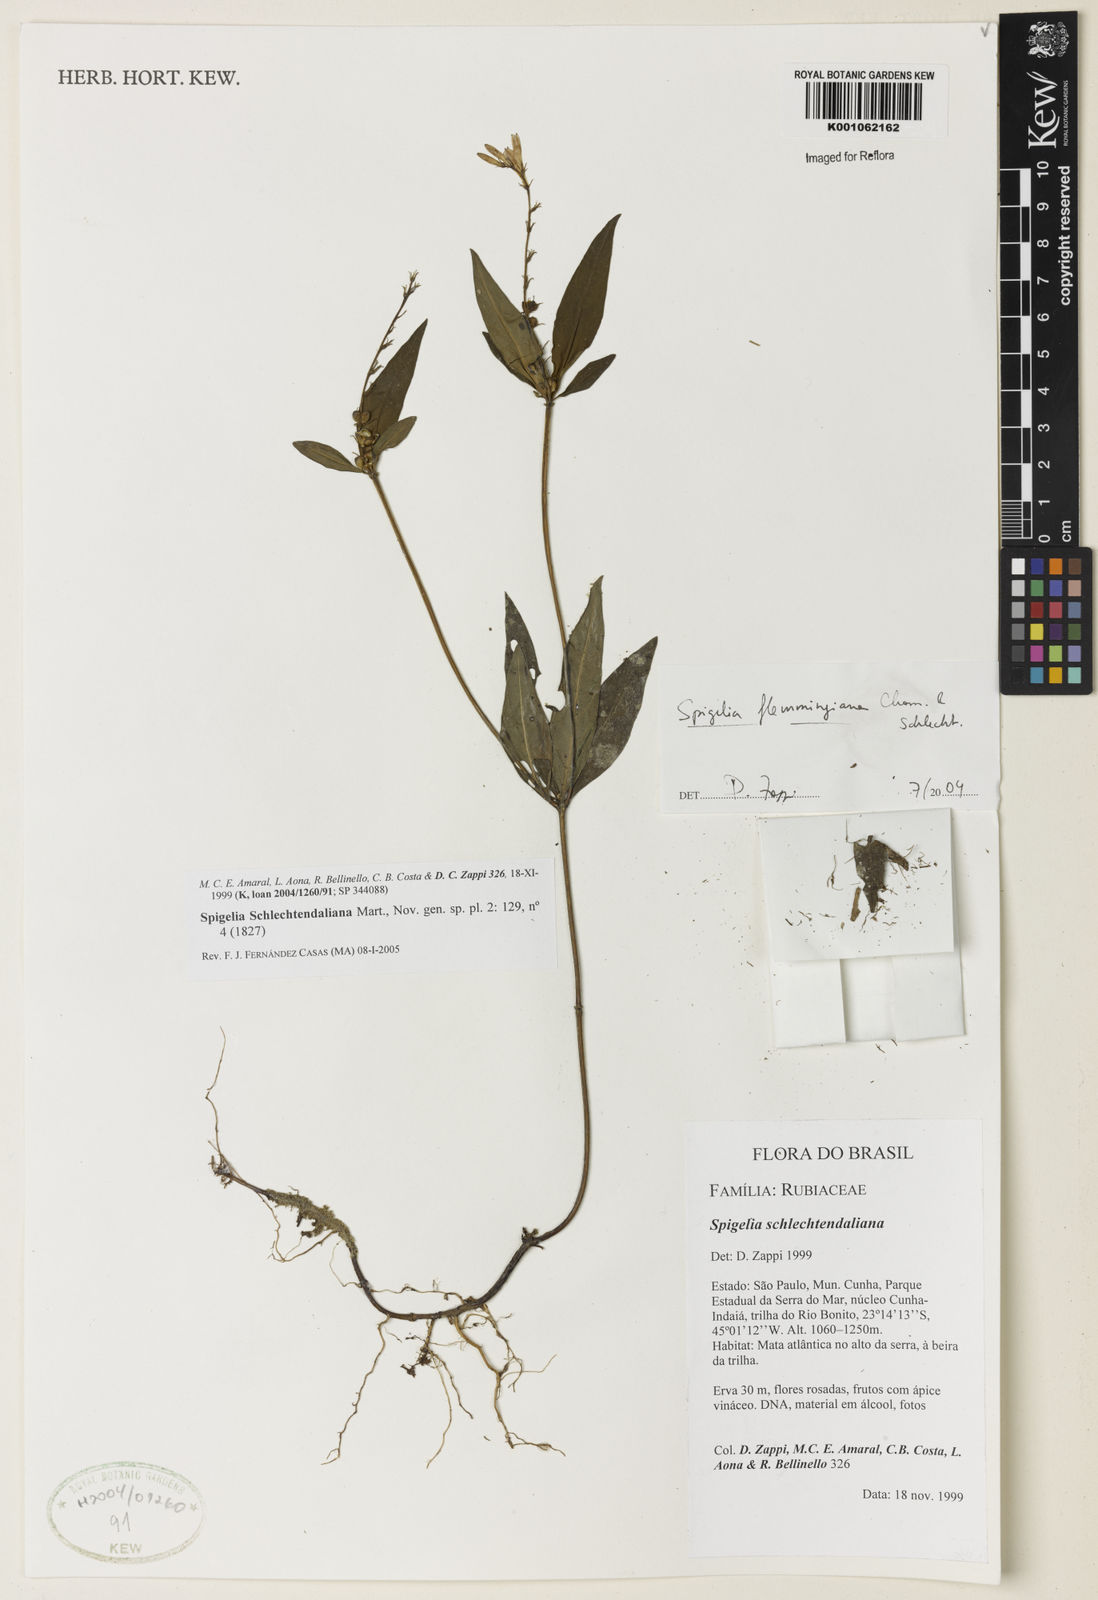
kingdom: Plantae
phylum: Tracheophyta
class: Magnoliopsida
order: Gentianales
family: Loganiaceae
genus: Spigelia
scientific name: Spigelia schlechtendaliana
